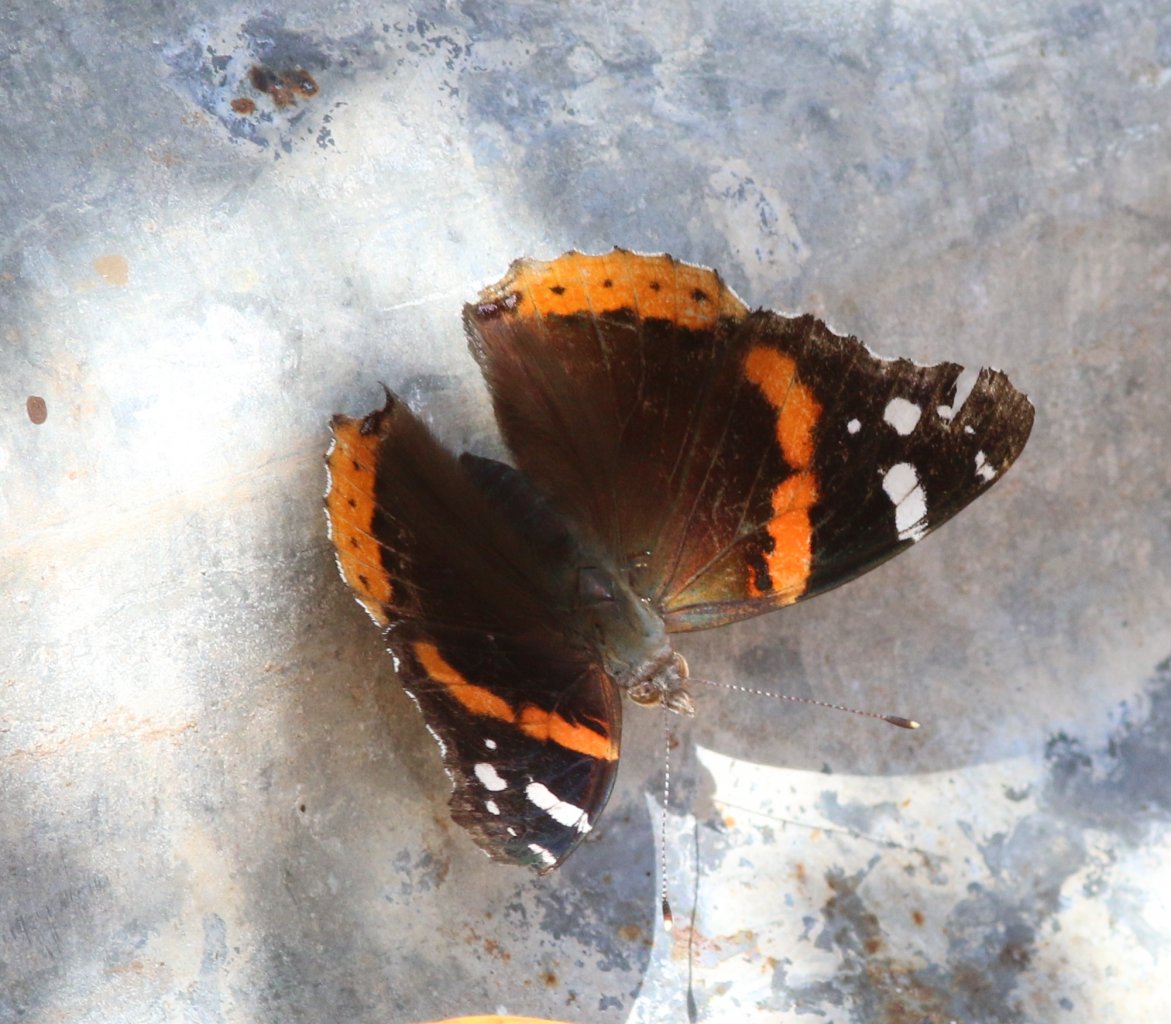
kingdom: Animalia
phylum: Arthropoda
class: Insecta
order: Lepidoptera
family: Nymphalidae
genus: Vanessa
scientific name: Vanessa atalanta
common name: Red Admiral
